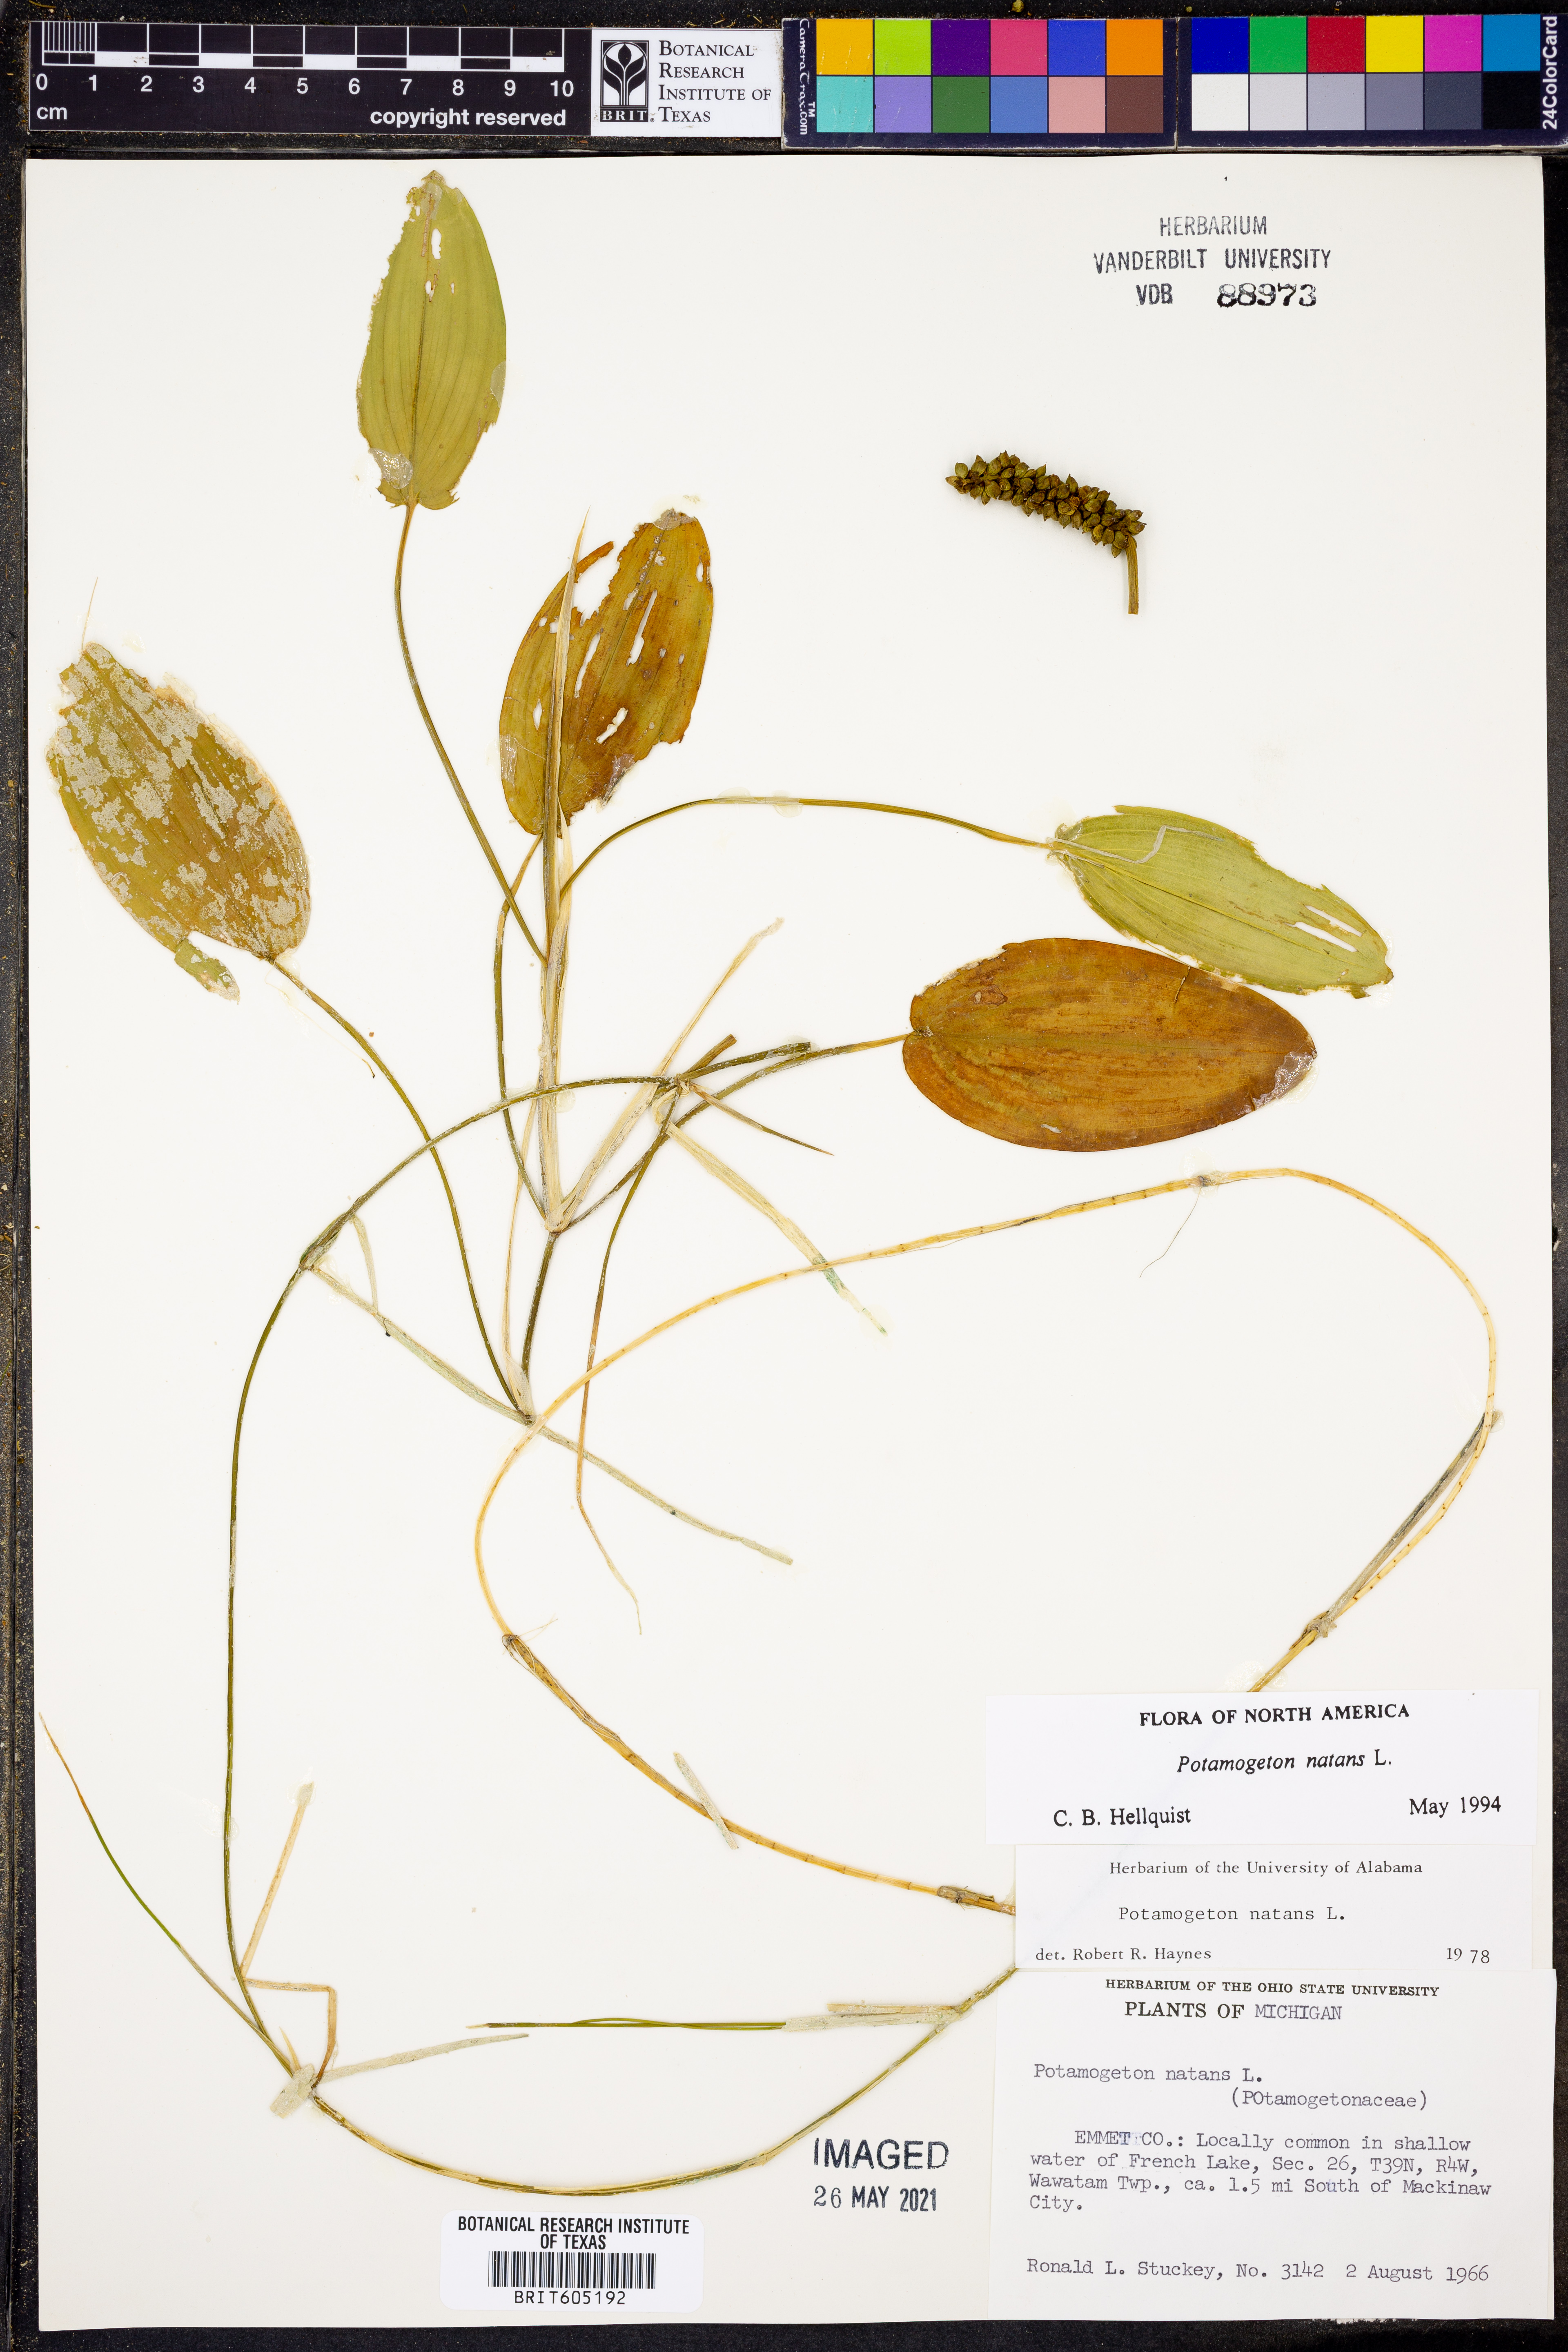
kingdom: Plantae
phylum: Tracheophyta
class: Liliopsida
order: Alismatales
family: Potamogetonaceae
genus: Potamogeton
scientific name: Potamogeton natans
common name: Broad-leaved pondweed
